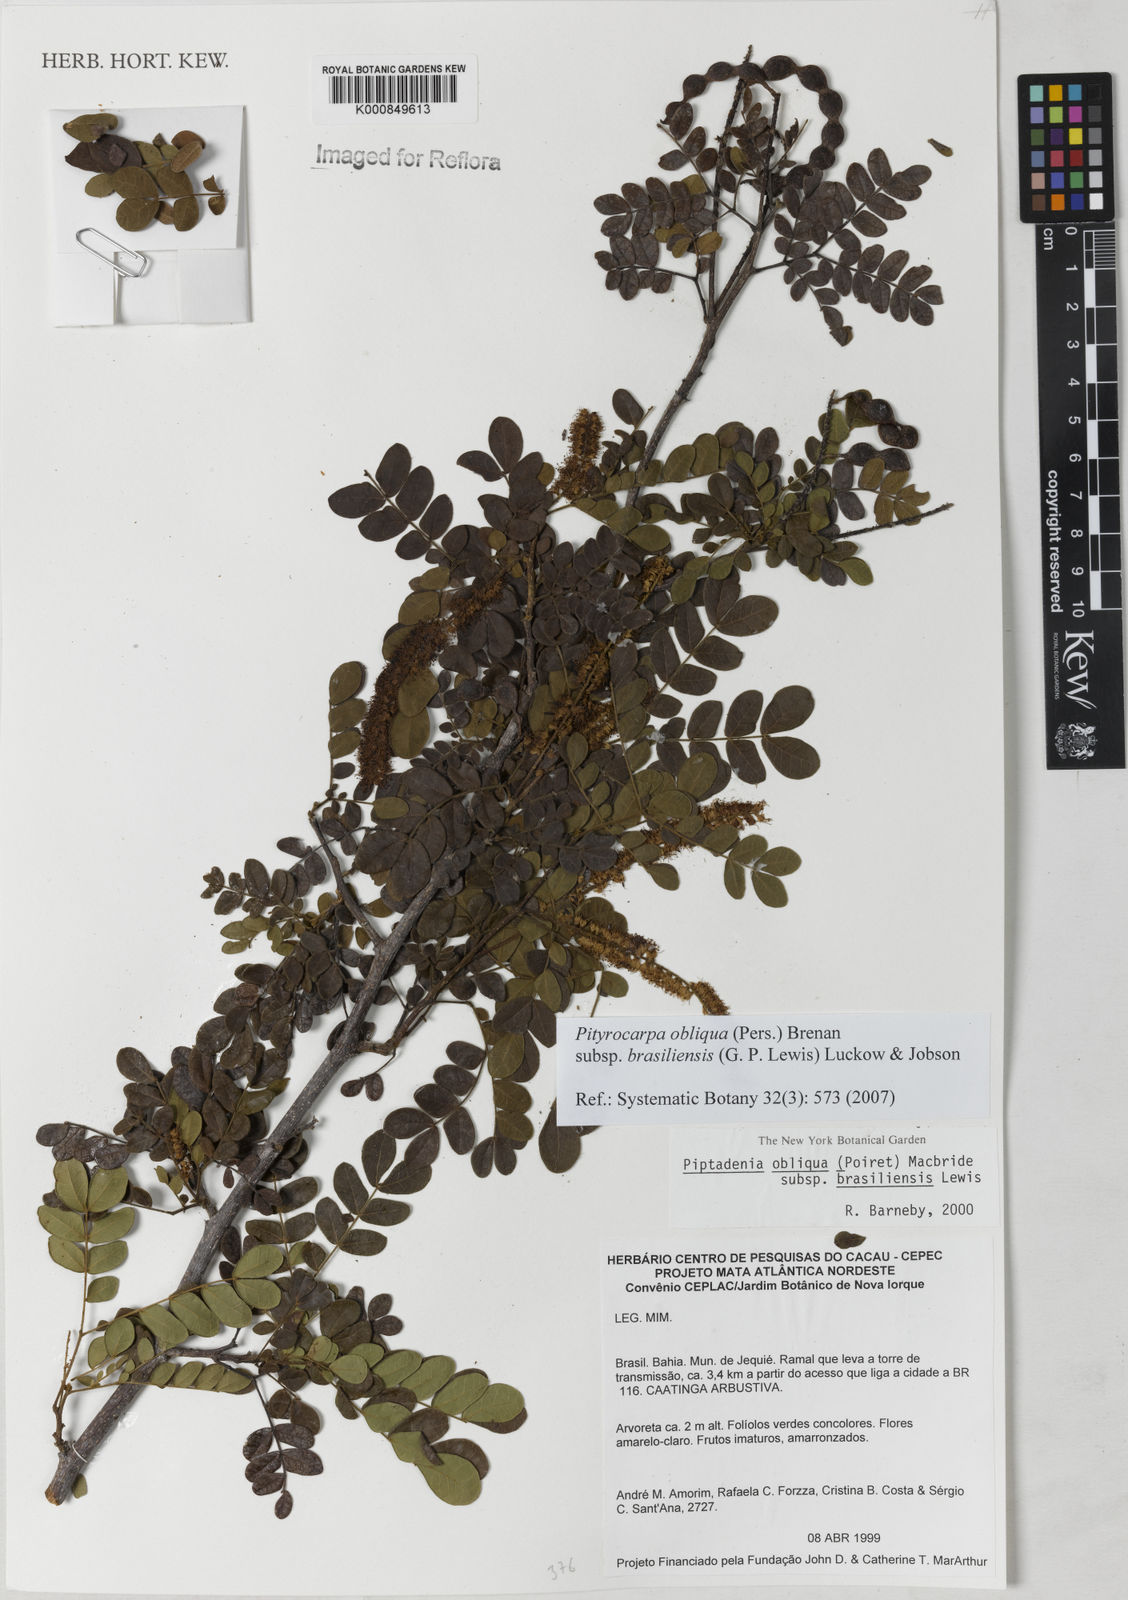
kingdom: Plantae
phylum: Tracheophyta
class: Magnoliopsida
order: Fabales
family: Fabaceae
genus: Pityrocarpa
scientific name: Pityrocarpa moniliformis
